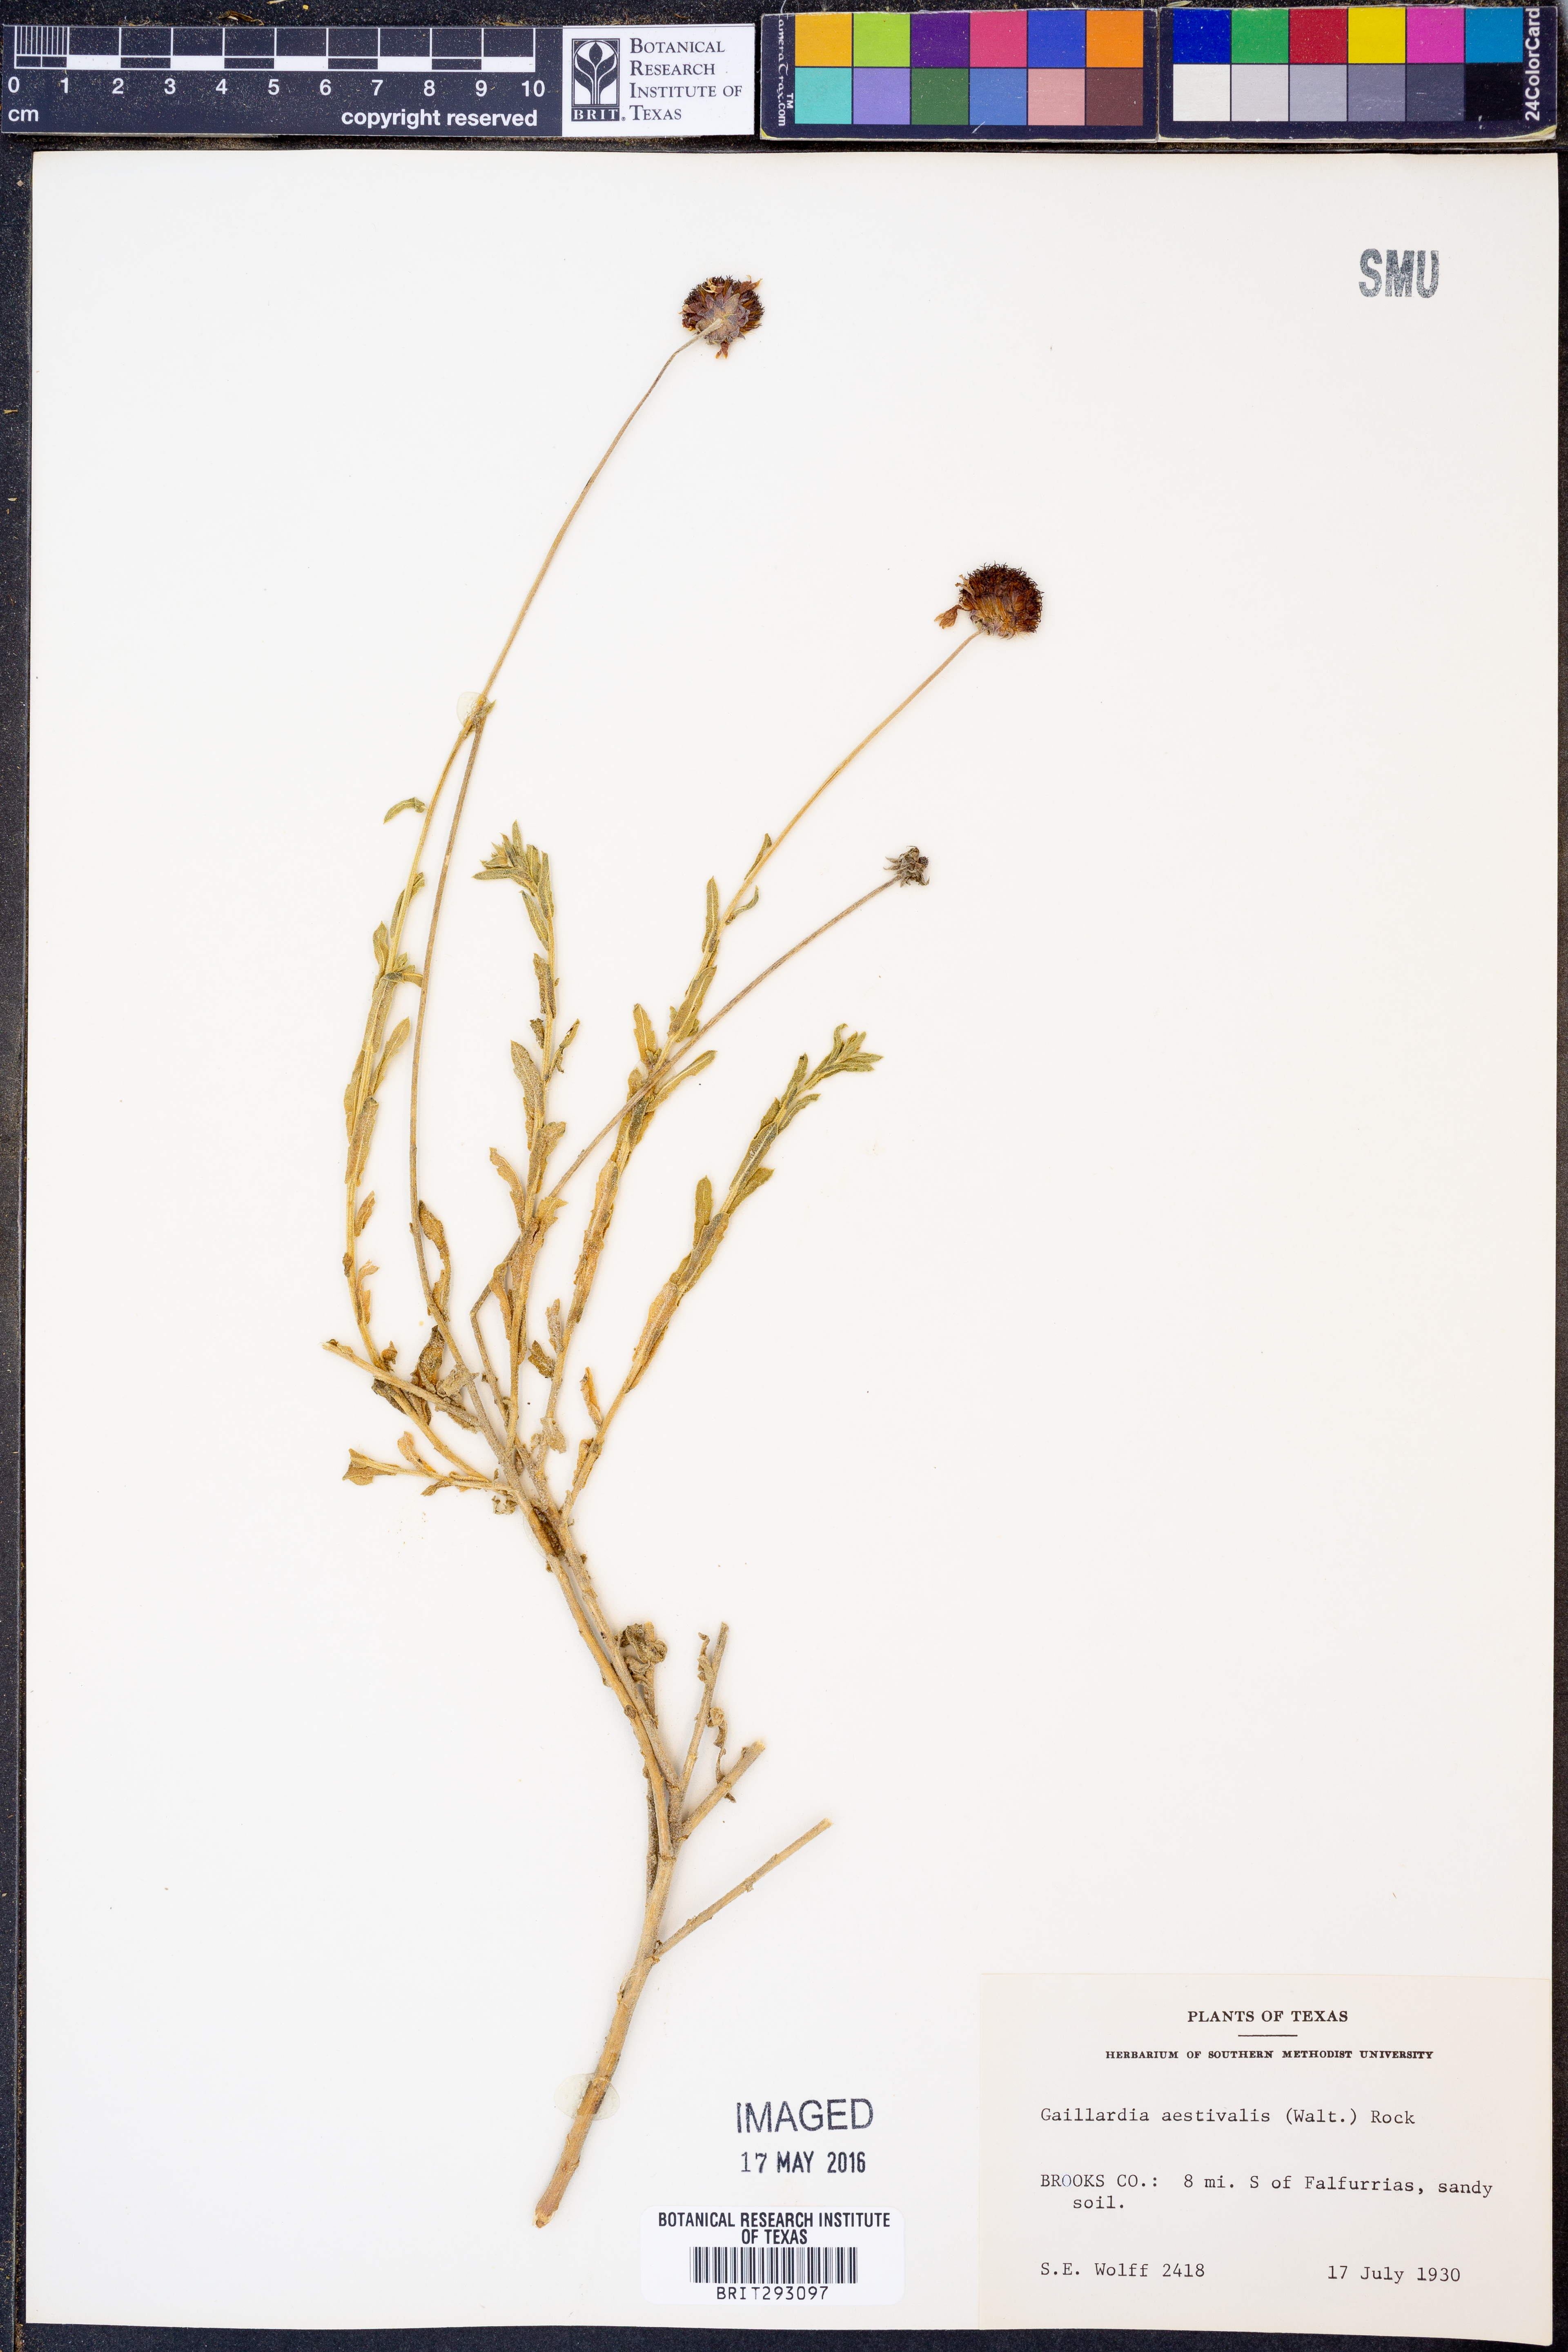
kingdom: Plantae
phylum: Tracheophyta
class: Magnoliopsida
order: Asterales
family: Asteraceae
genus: Gaillardia
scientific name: Gaillardia aestivalis
